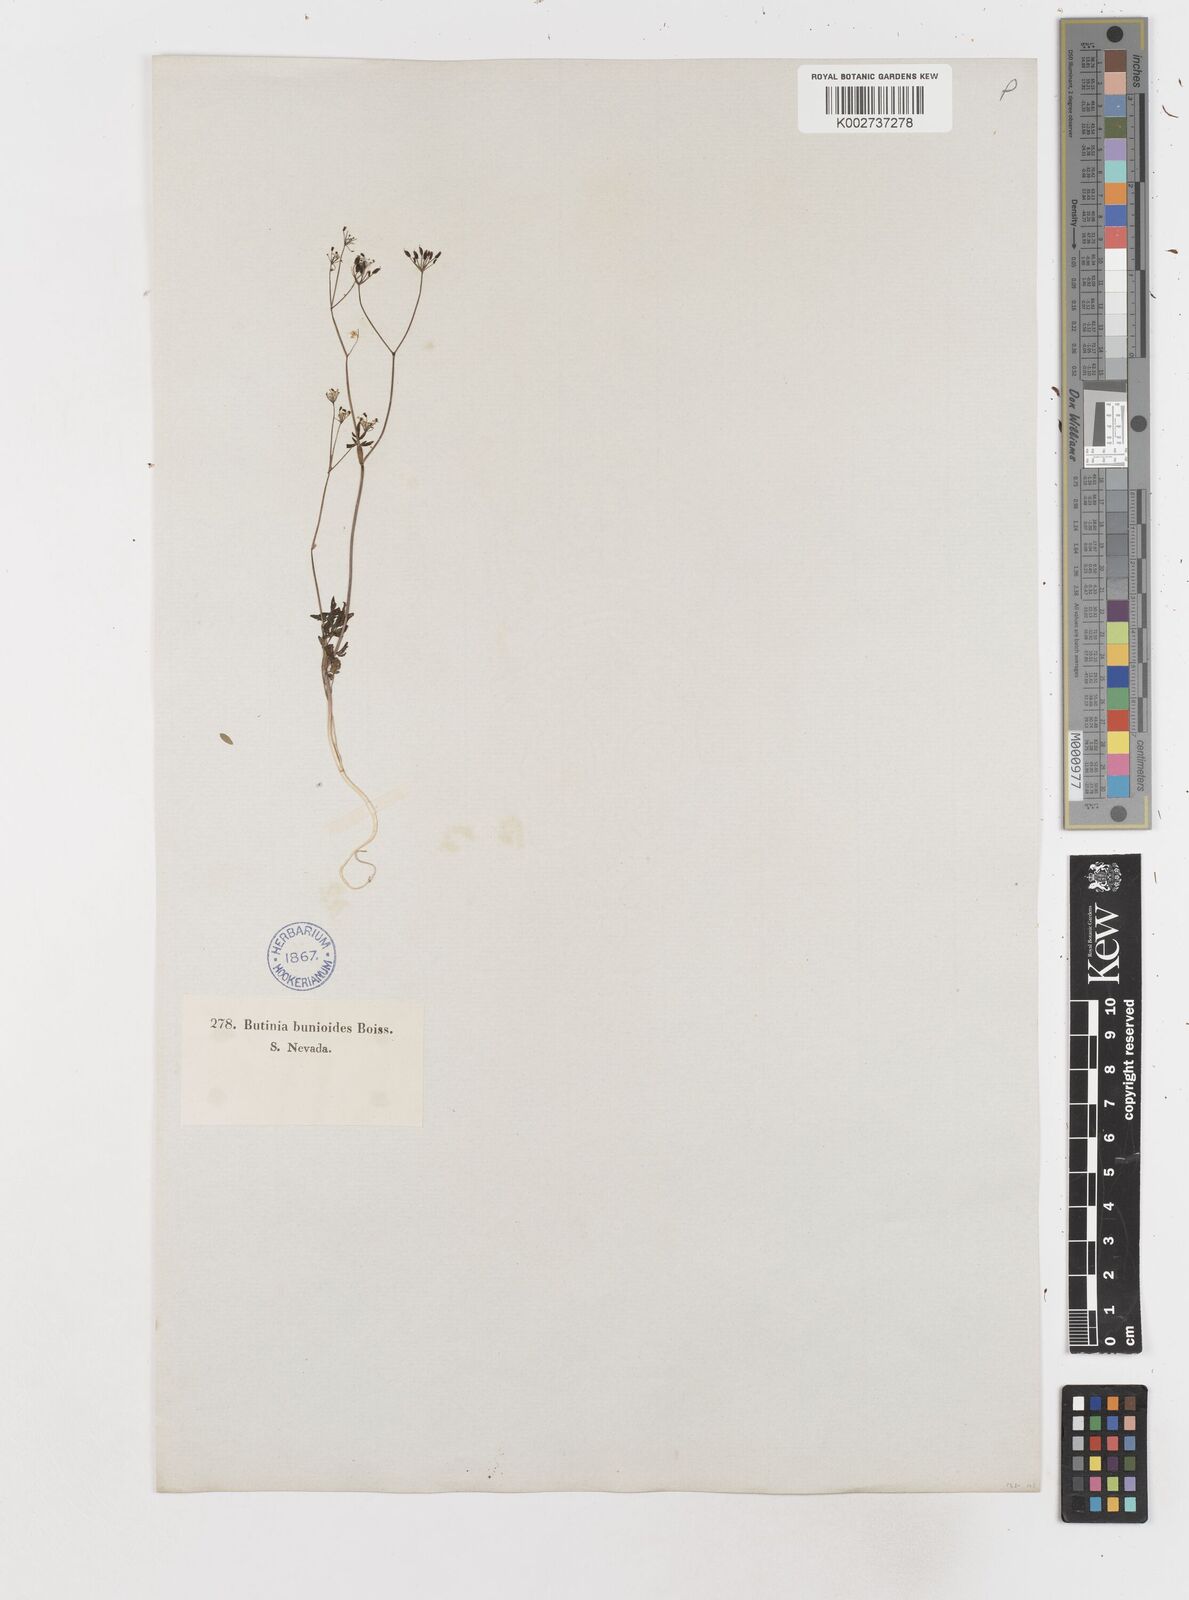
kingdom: Plantae
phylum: Tracheophyta
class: Magnoliopsida
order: Apiales
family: Apiaceae
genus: Conopodium
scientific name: Conopodium bunioides
